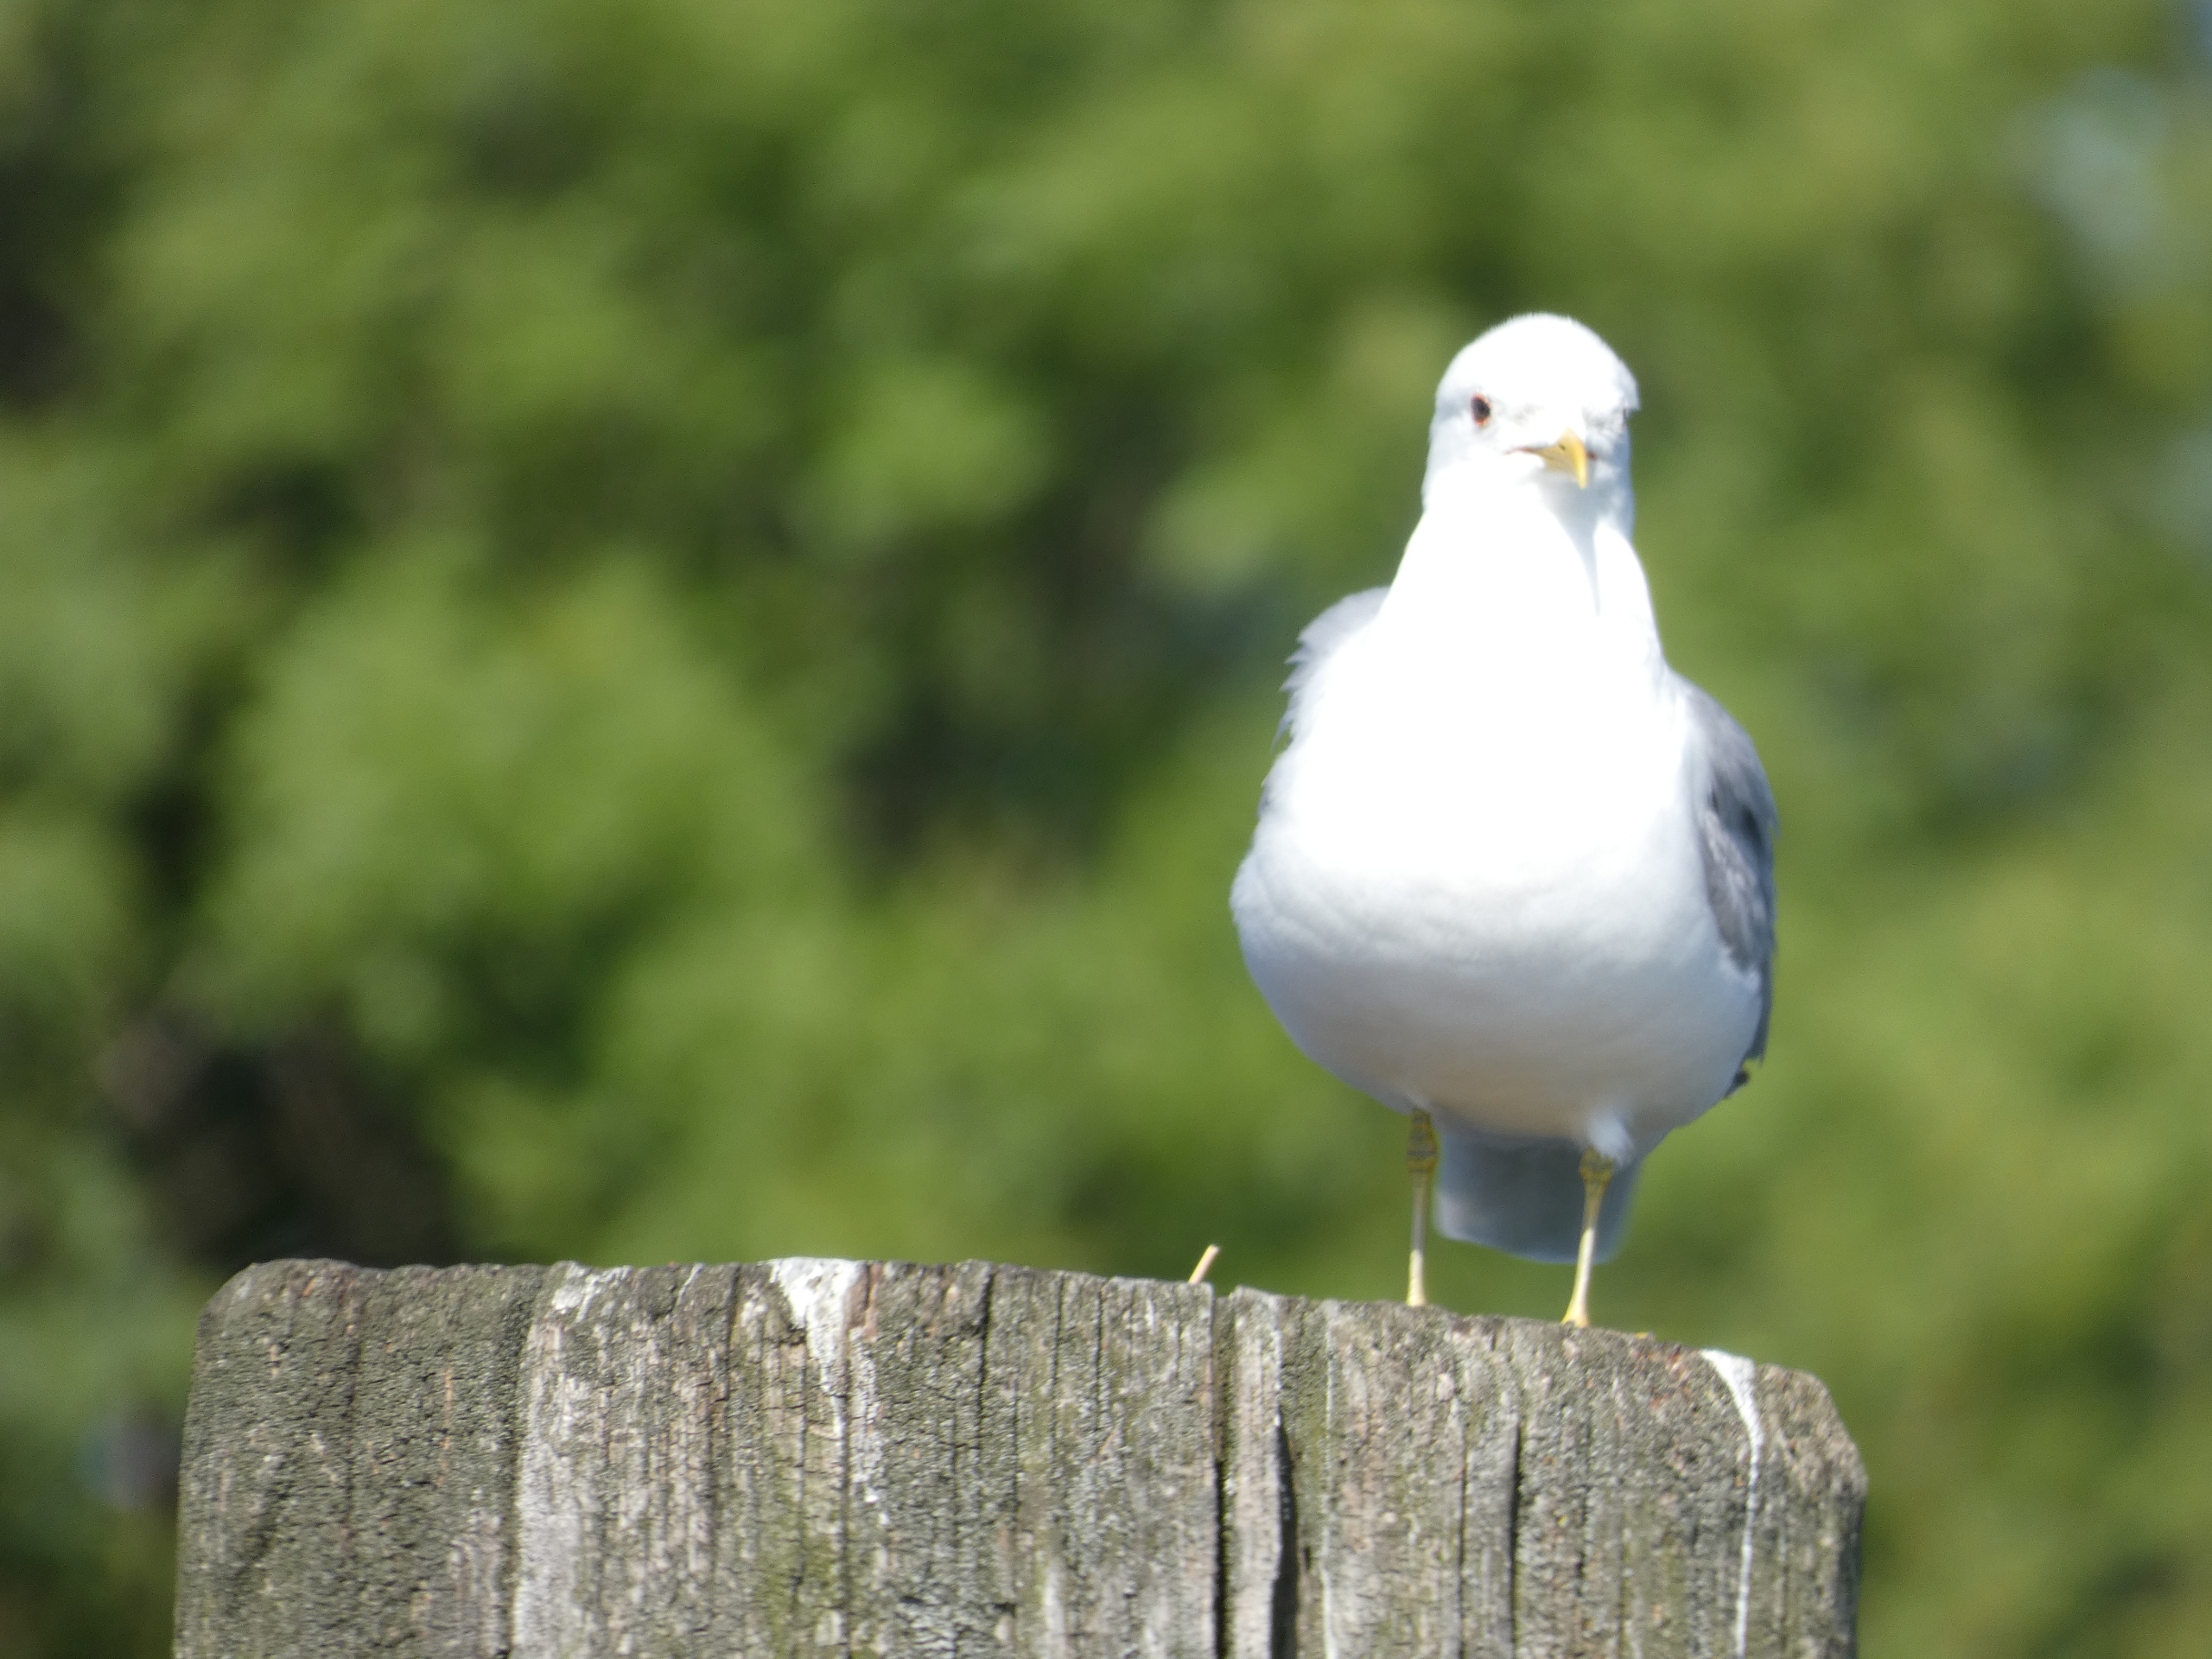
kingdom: Animalia
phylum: Chordata
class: Aves
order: Charadriiformes
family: Laridae
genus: Larus
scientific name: Larus canus
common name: Stormmåge
